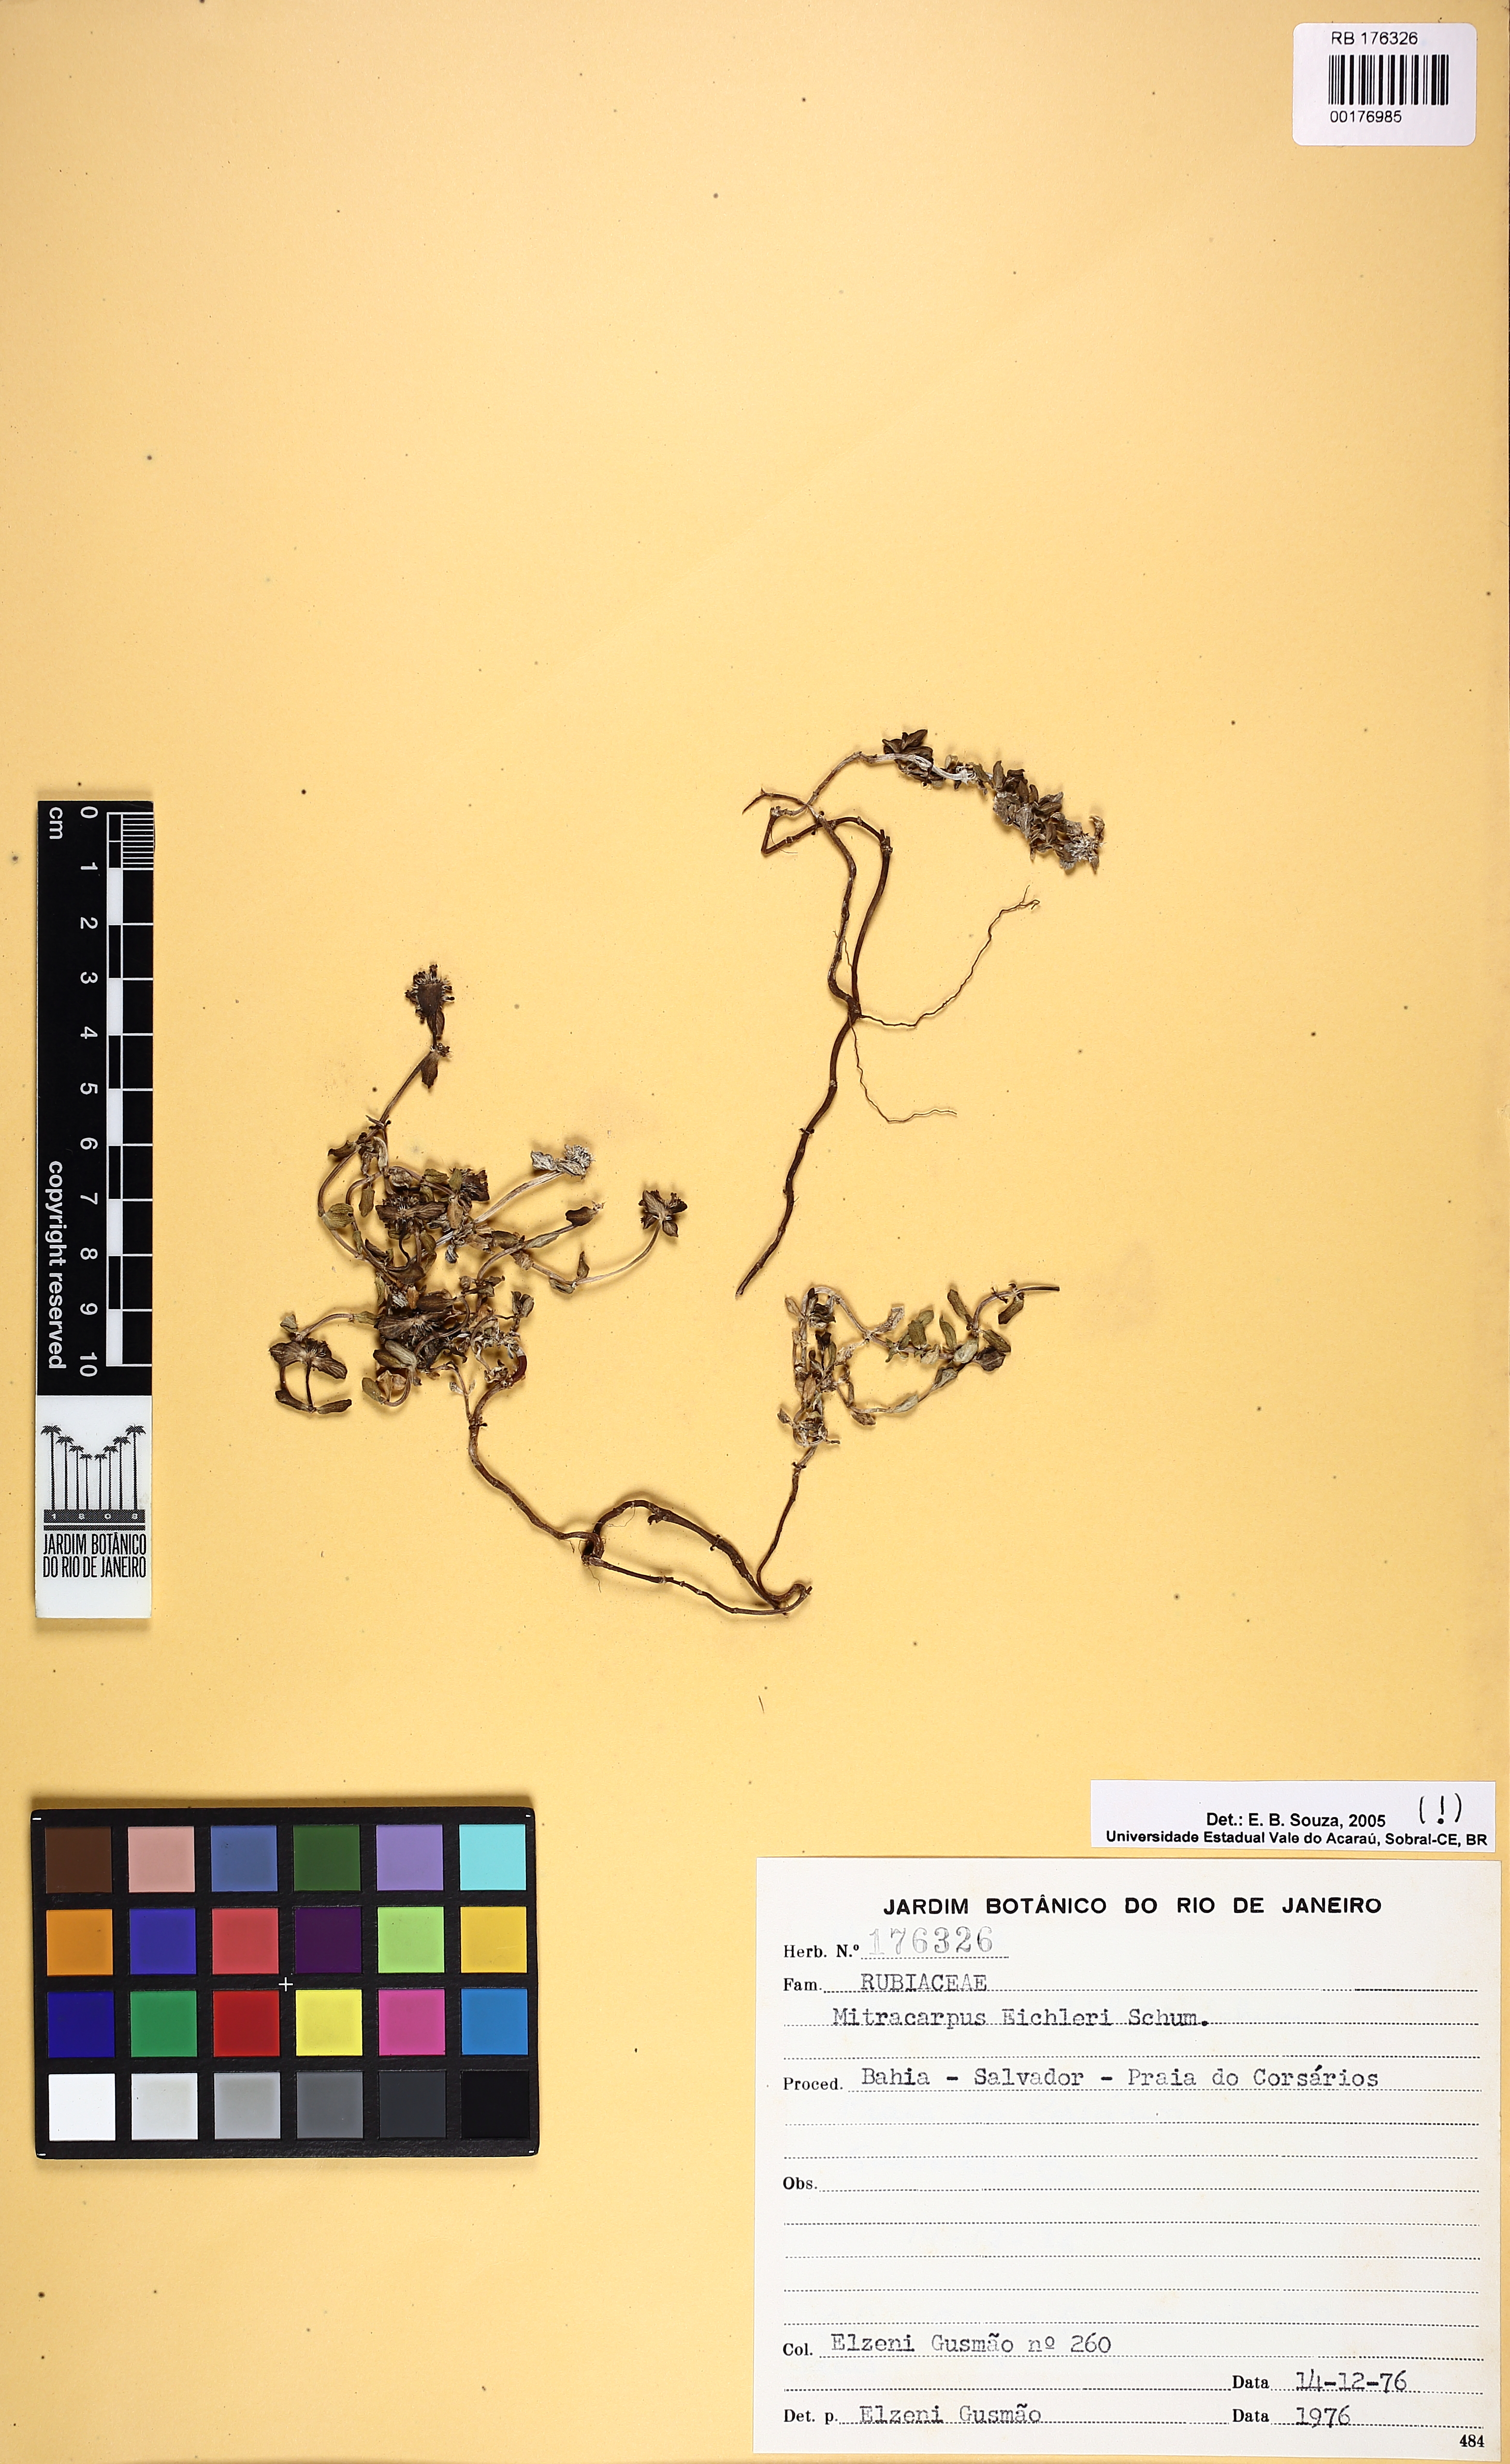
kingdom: Plantae
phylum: Tracheophyta
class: Magnoliopsida
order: Gentianales
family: Rubiaceae
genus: Mitracarpus
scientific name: Mitracarpus eichleri
